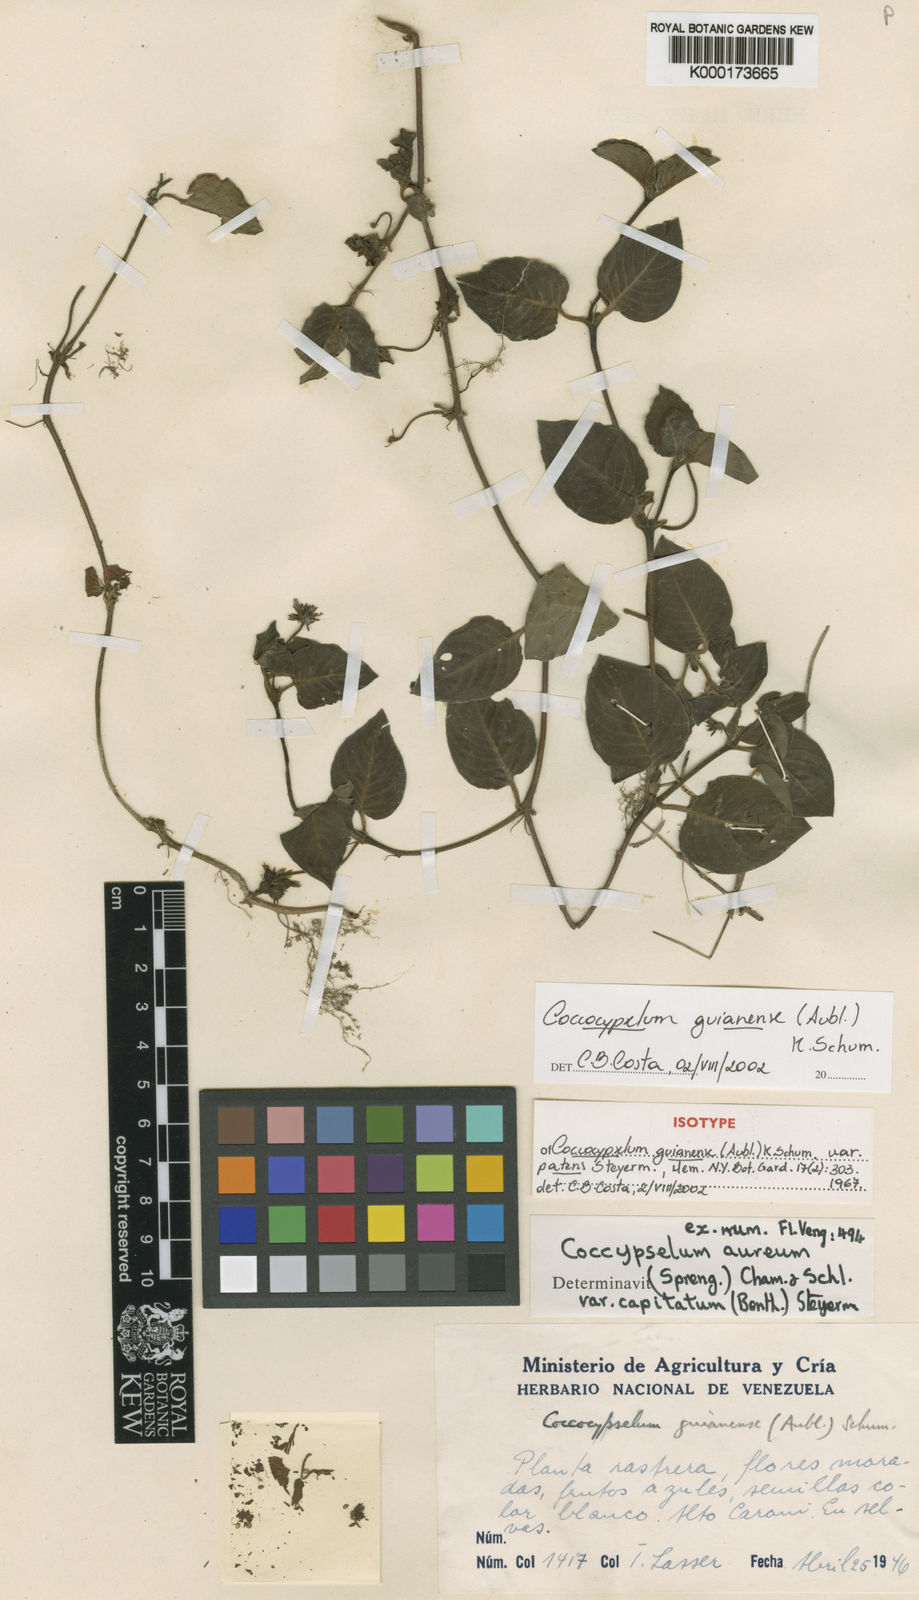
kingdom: Plantae
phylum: Tracheophyta
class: Magnoliopsida
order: Gentianales
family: Rubiaceae
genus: Coccocypselum
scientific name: Coccocypselum guianense
